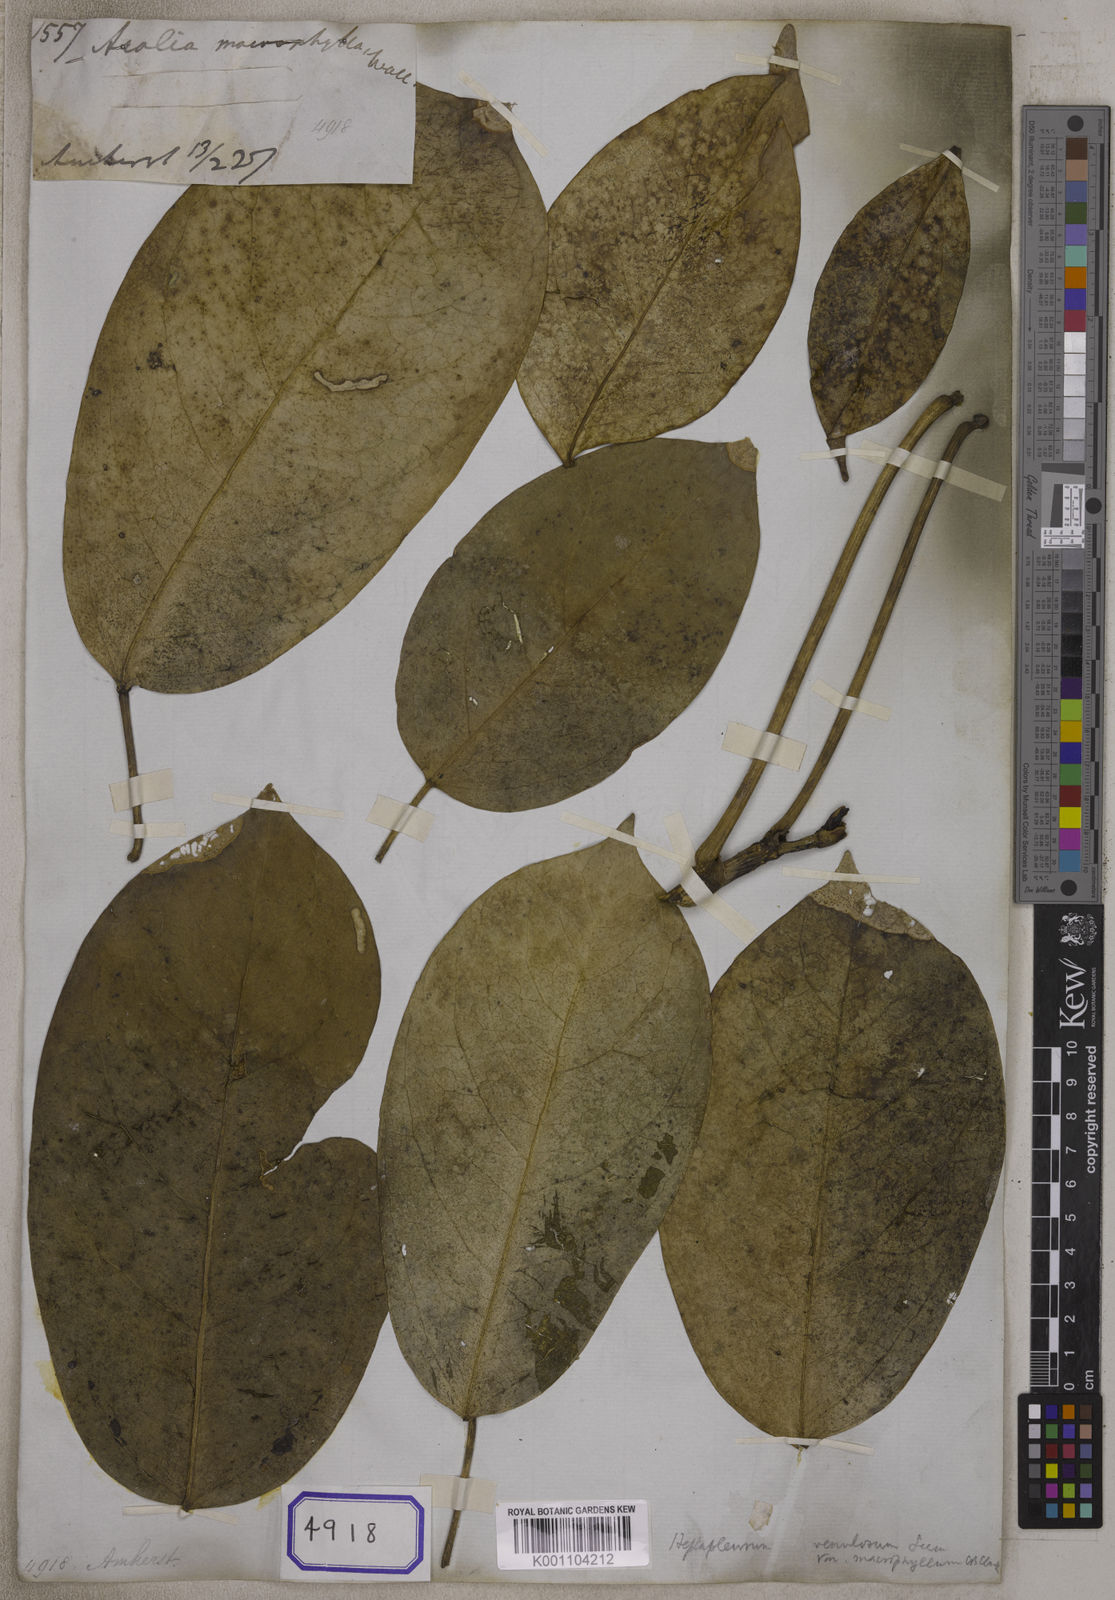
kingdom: Plantae
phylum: Tracheophyta
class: Magnoliopsida
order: Apiales
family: Araliaceae
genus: Heptapleurum
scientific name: Heptapleurum bengalense
